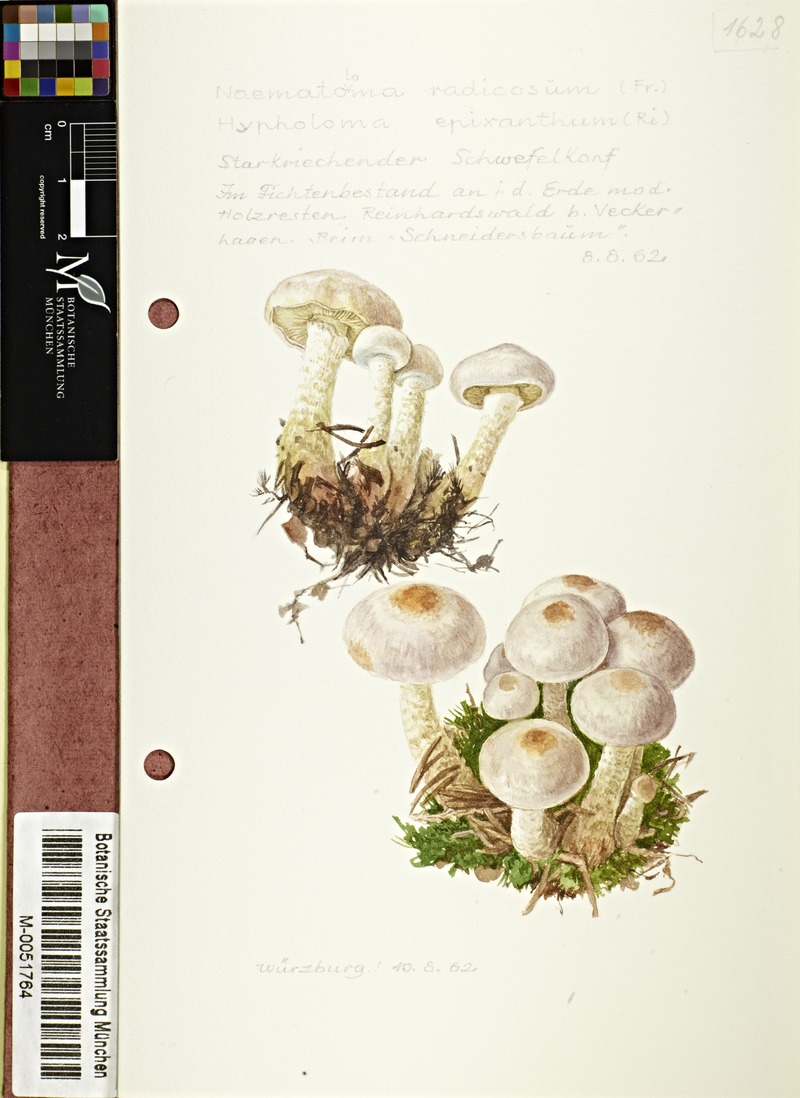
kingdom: Fungi
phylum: Basidiomycota
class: Agaricomycetes
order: Agaricales
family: Strophariaceae
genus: Hypholoma
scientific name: Hypholoma radicosum
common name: Rooting brownie
